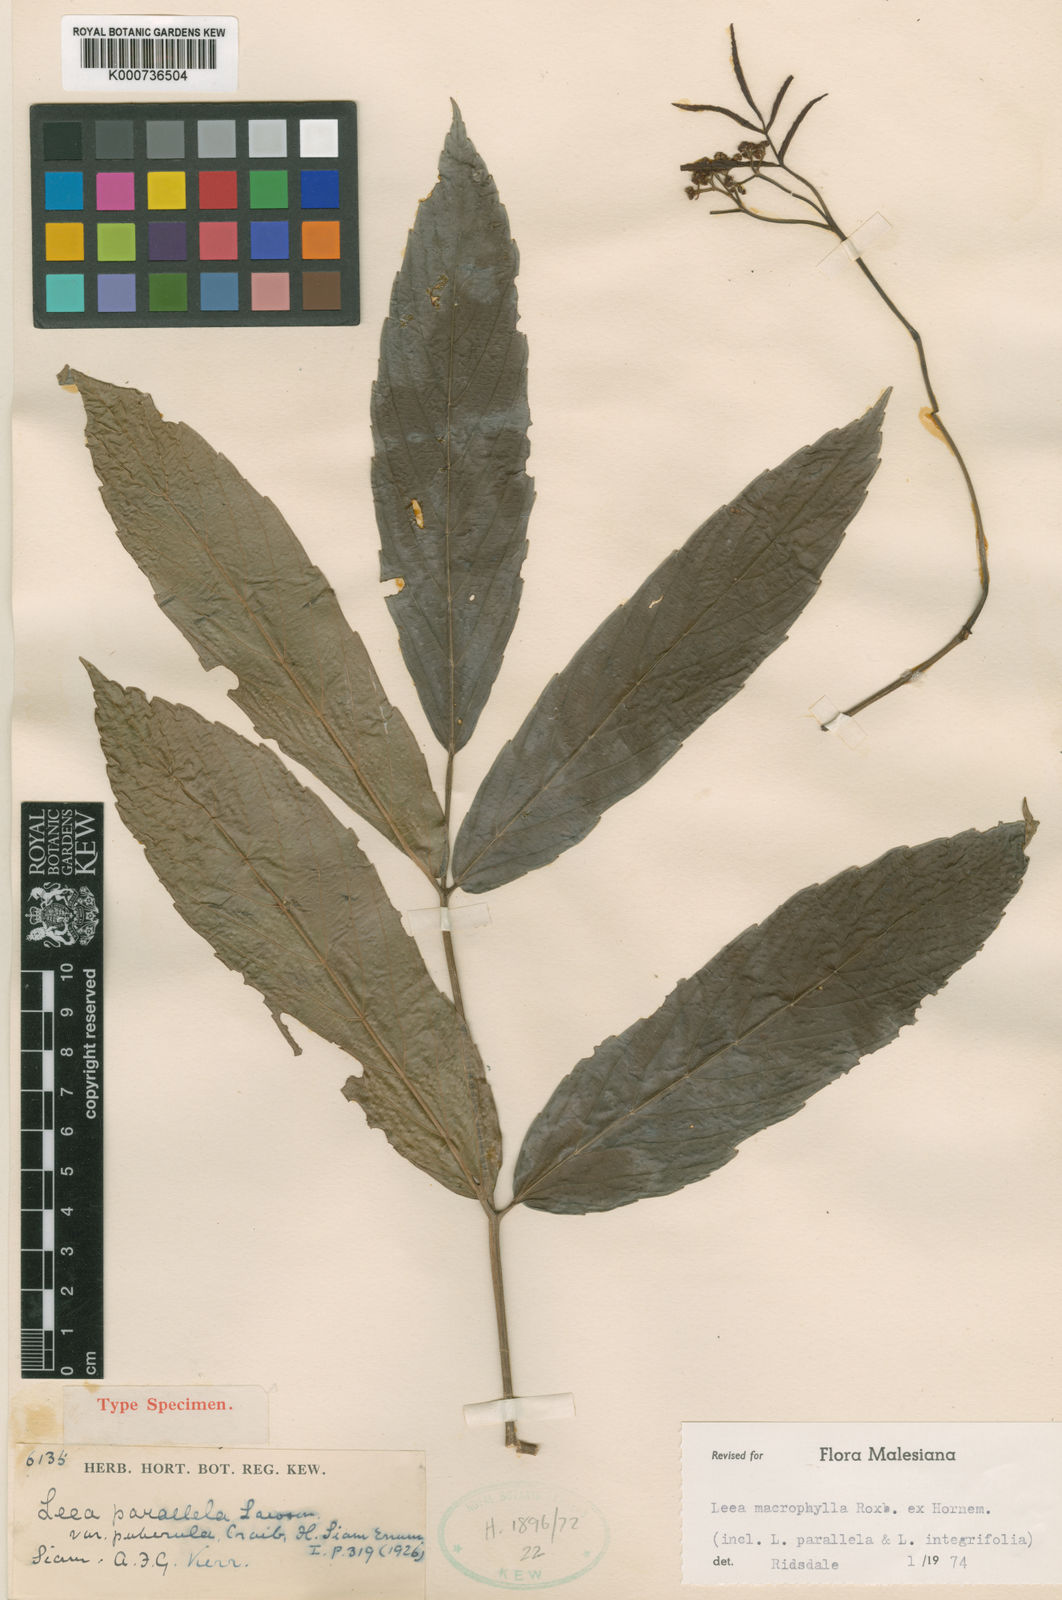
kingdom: Plantae
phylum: Tracheophyta
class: Magnoliopsida
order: Vitales
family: Vitaceae
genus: Leea
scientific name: Leea macrophylla
